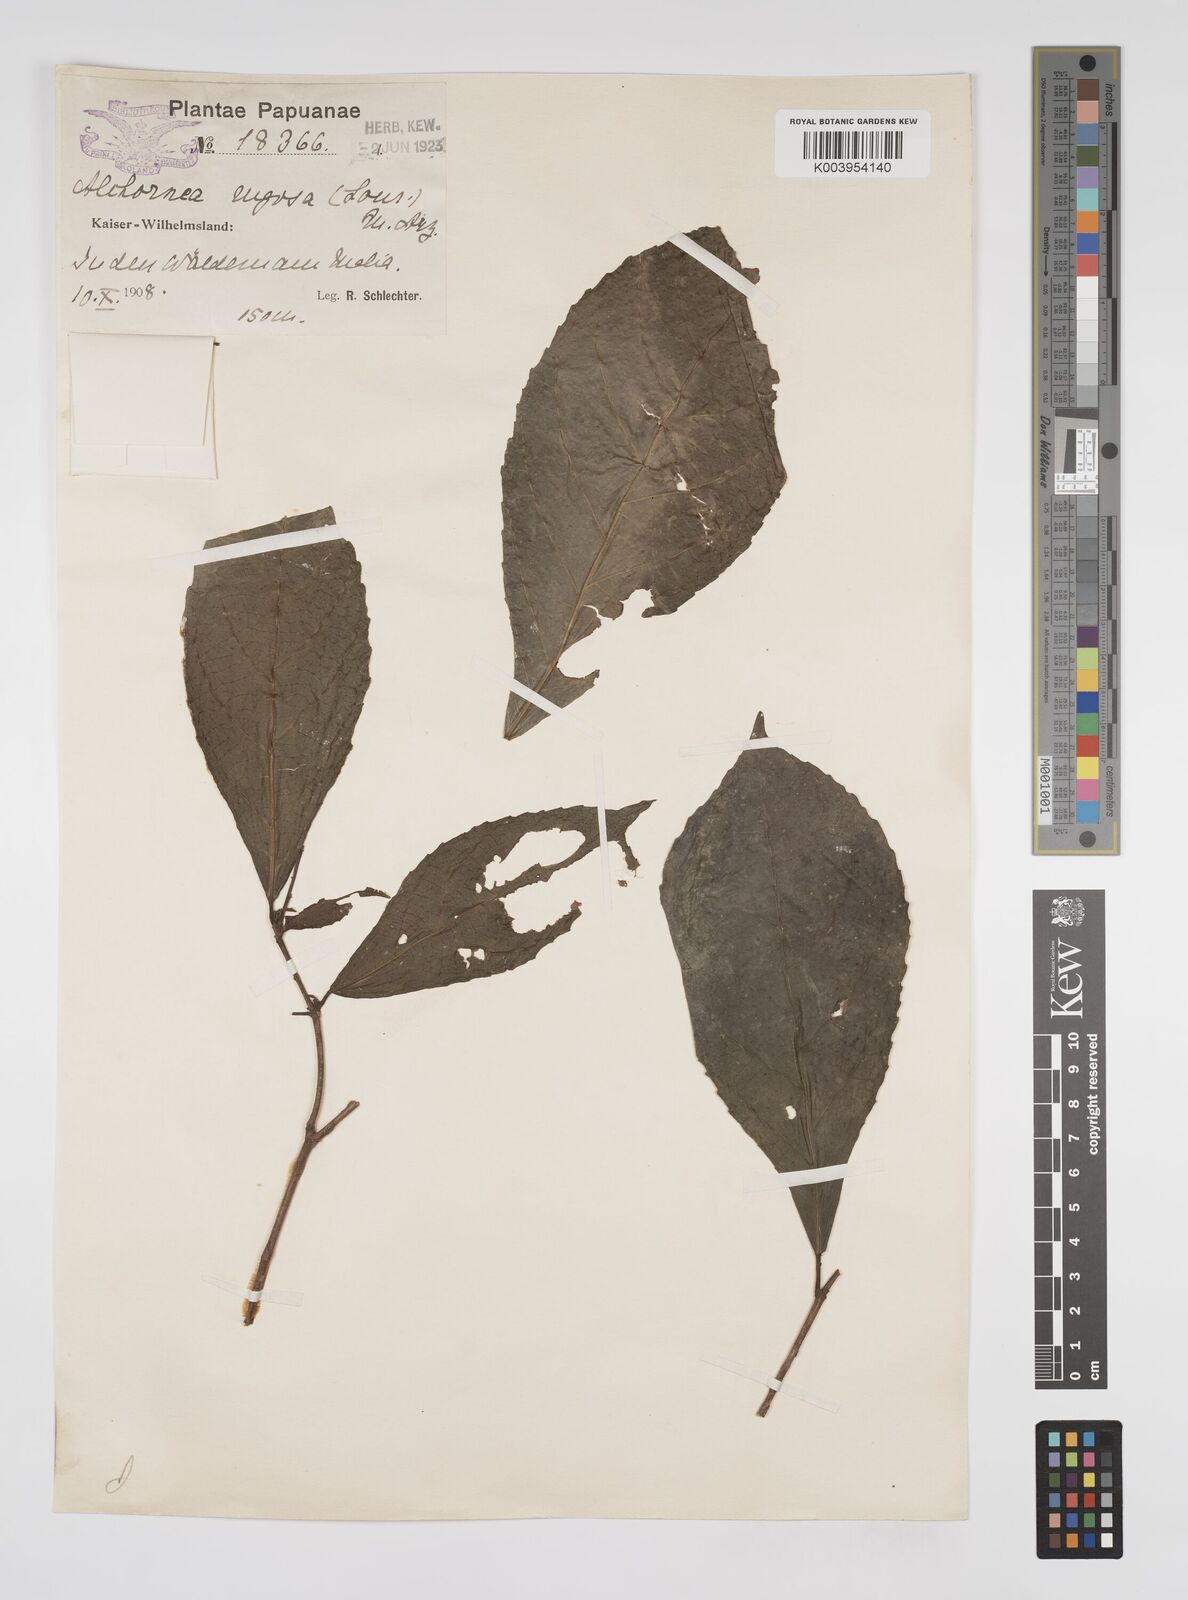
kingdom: Plantae
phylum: Tracheophyta
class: Magnoliopsida
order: Malpighiales
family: Euphorbiaceae
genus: Alchornea
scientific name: Alchornea rugosa
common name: Alchorntree
